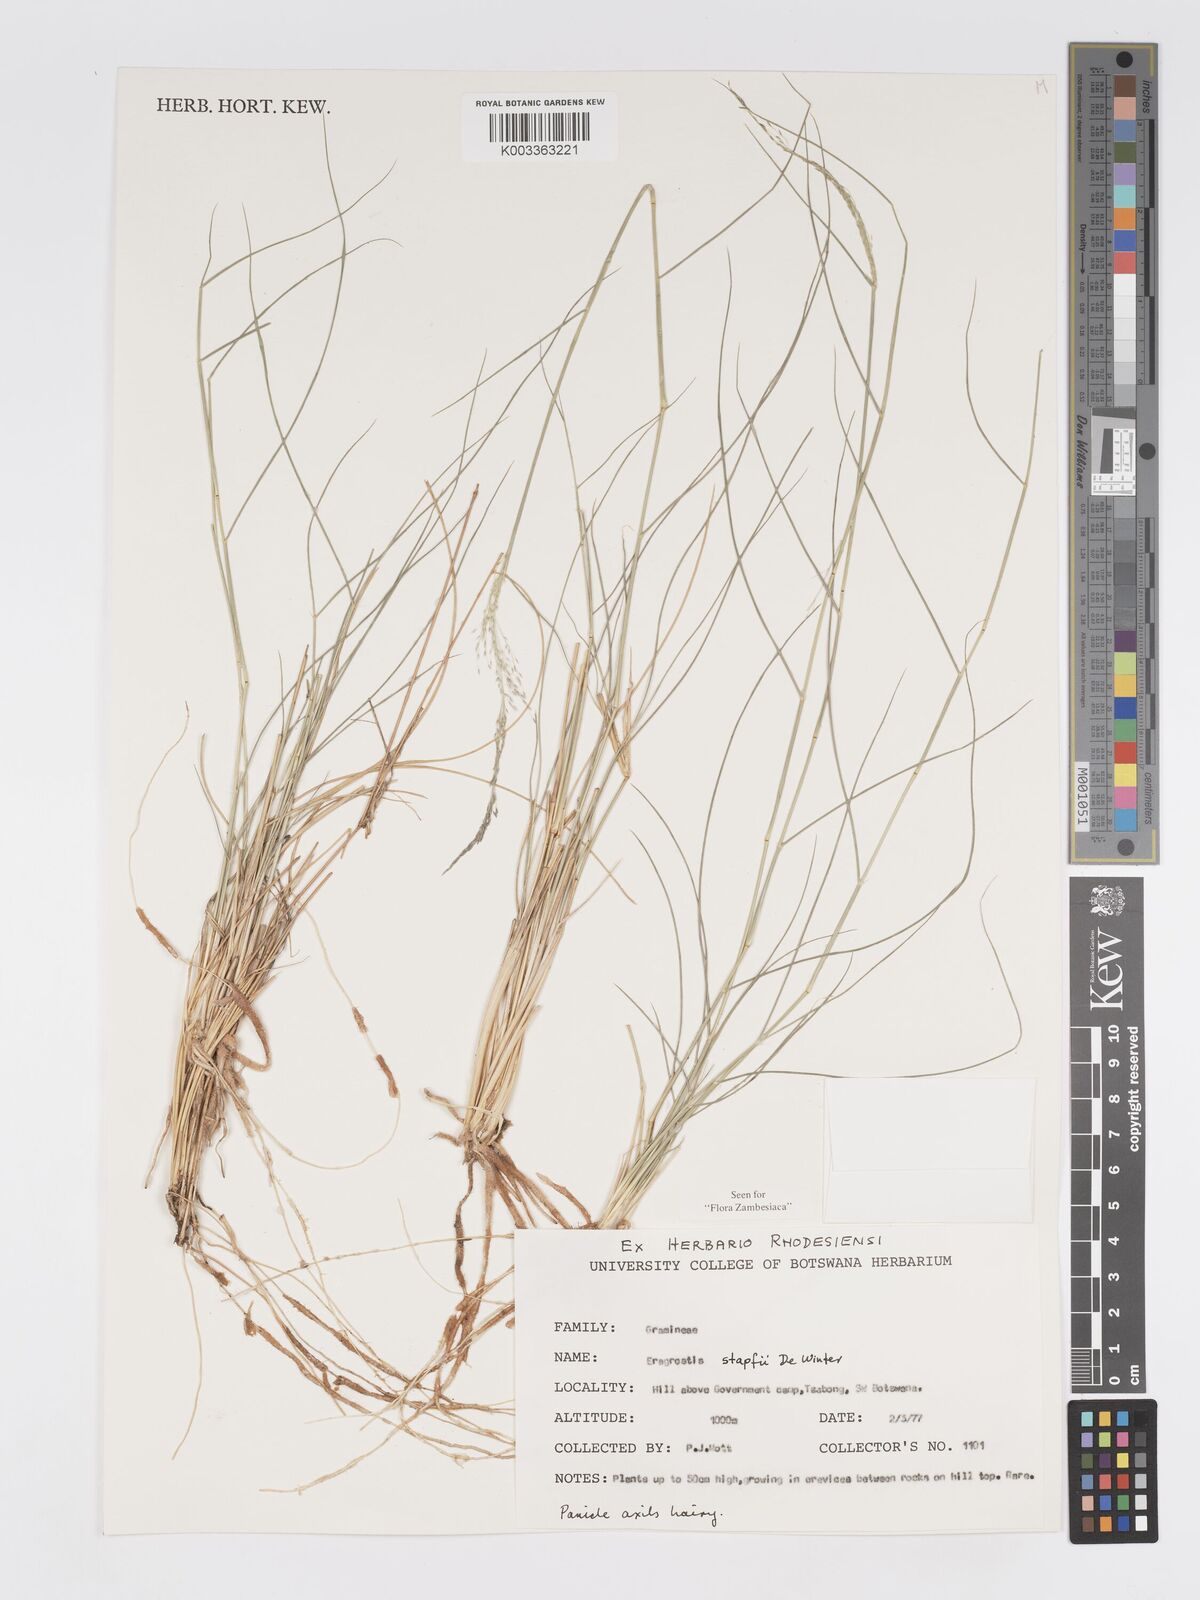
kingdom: Plantae
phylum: Tracheophyta
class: Liliopsida
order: Poales
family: Poaceae
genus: Eragrostis
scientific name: Eragrostis stapfii
